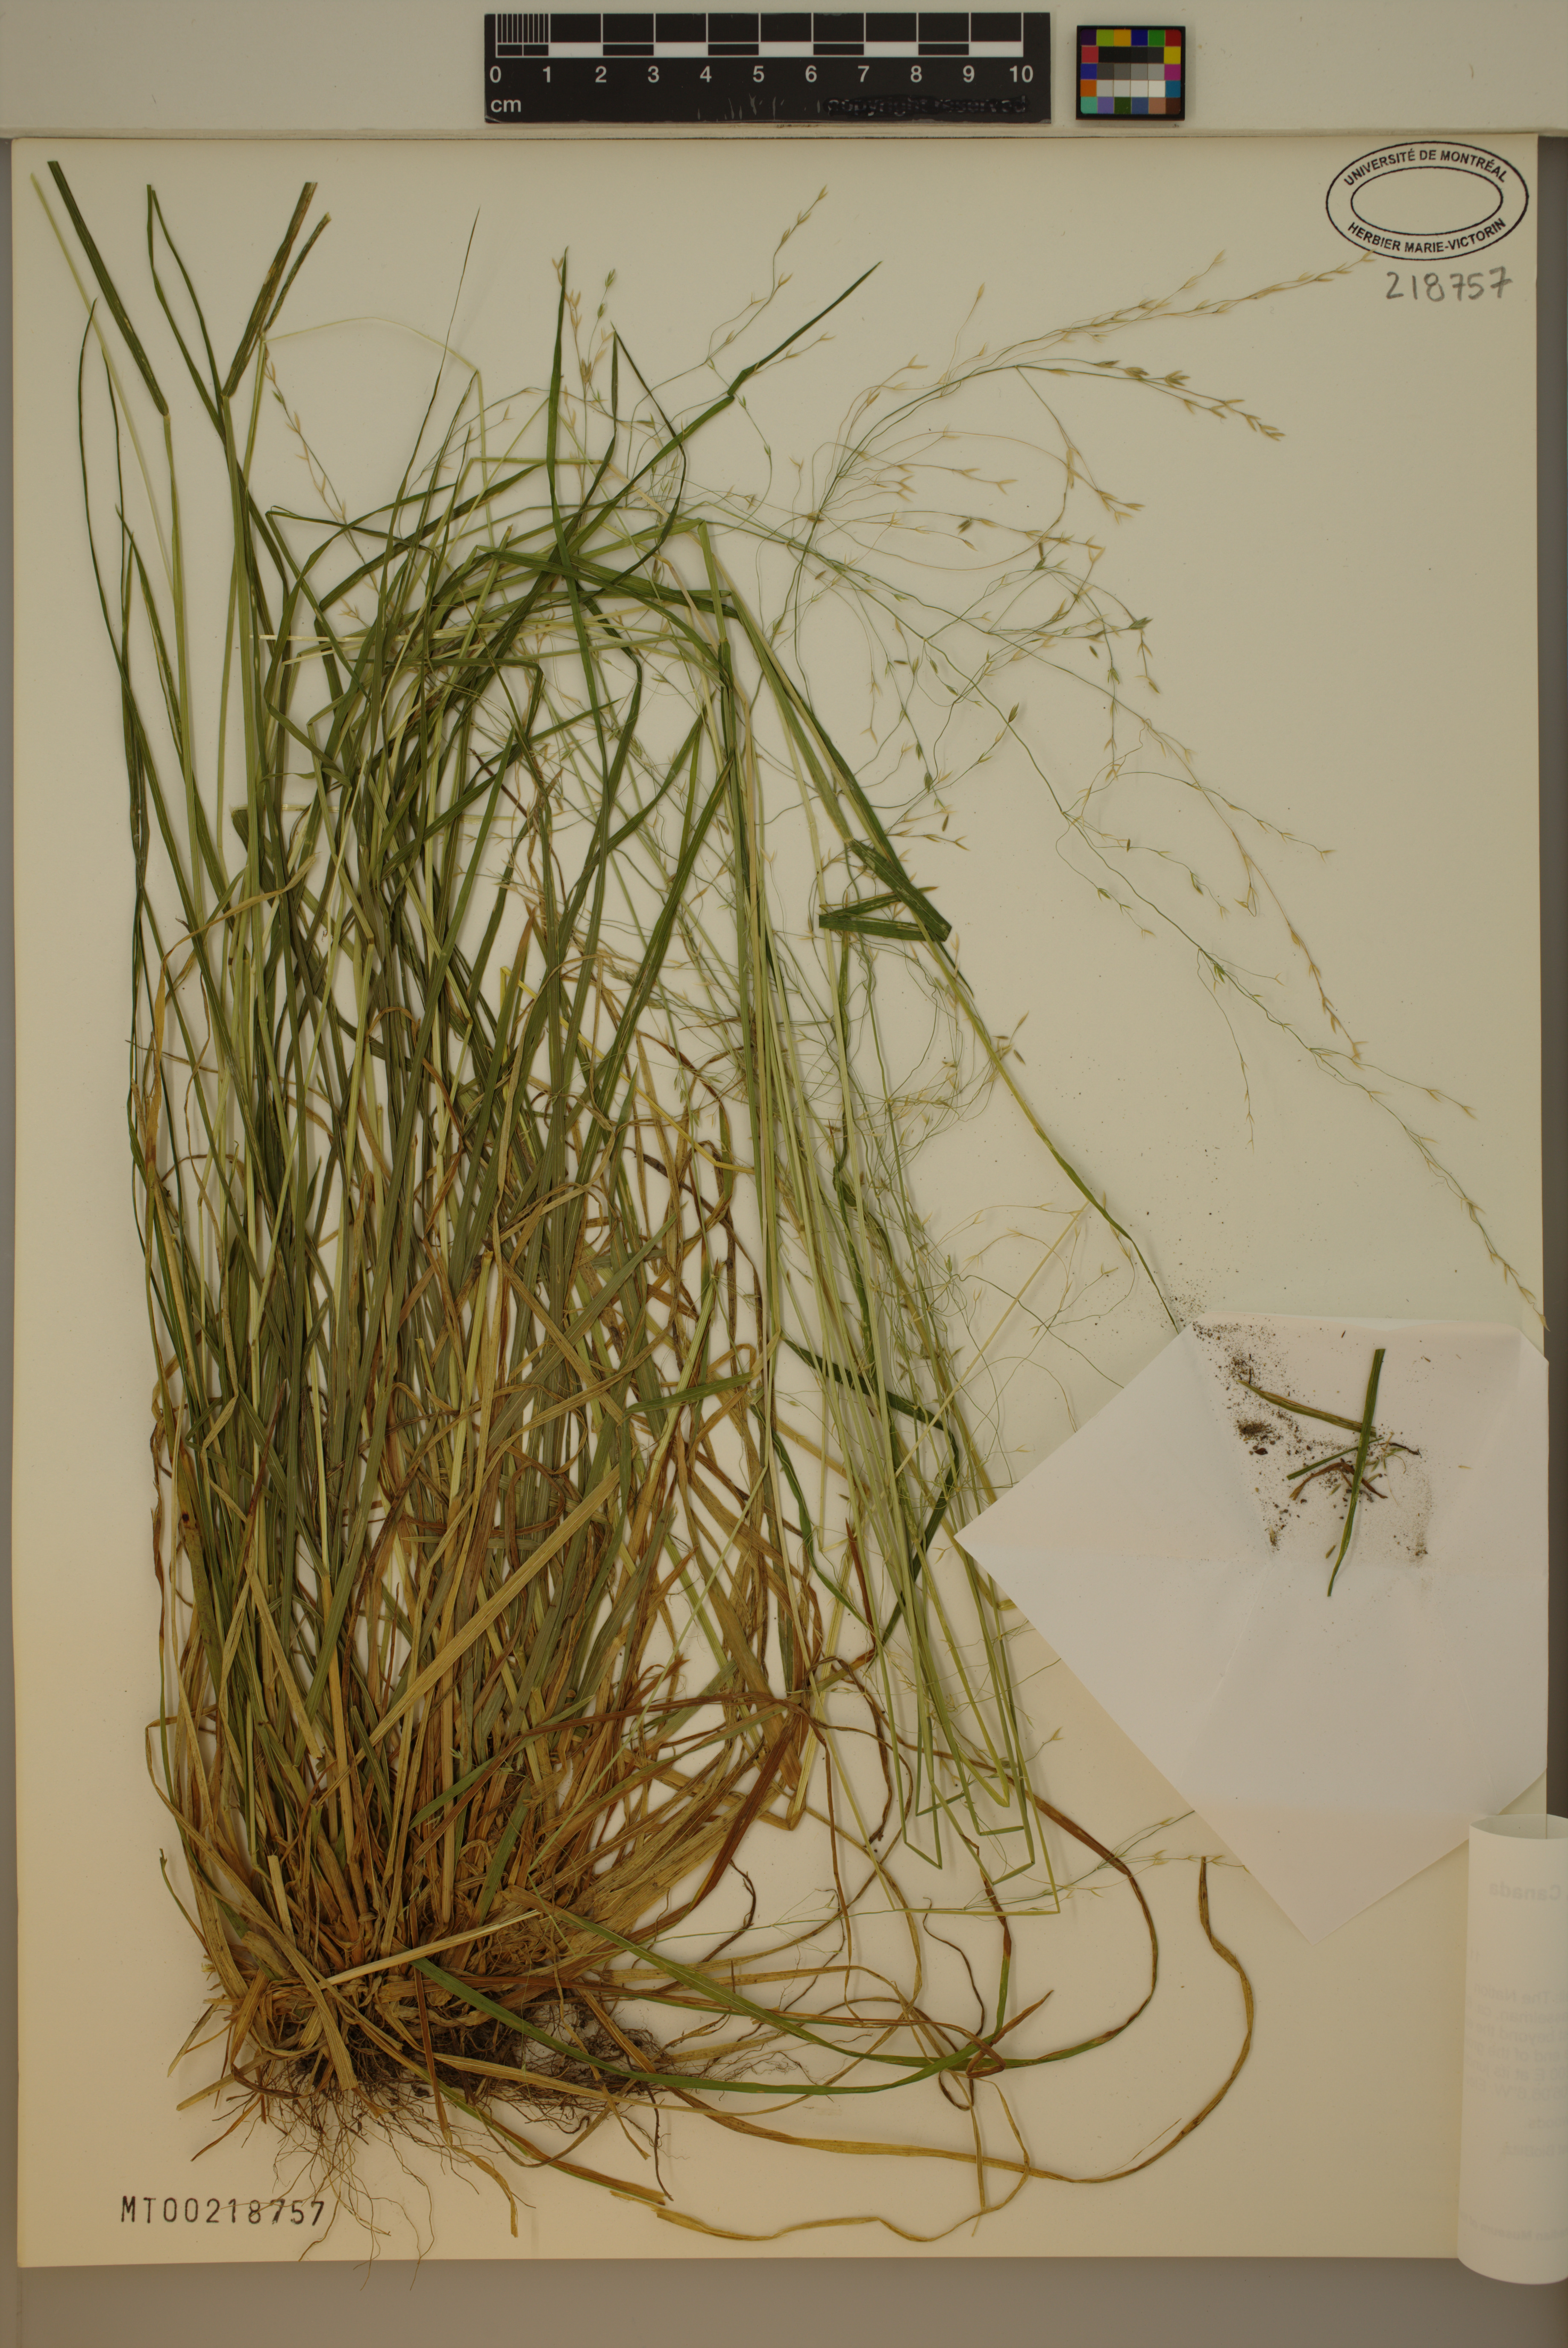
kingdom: Plantae
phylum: Tracheophyta
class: Liliopsida
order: Poales
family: Poaceae
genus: Poa
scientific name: Poa alsodes
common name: Grove bluegrass
